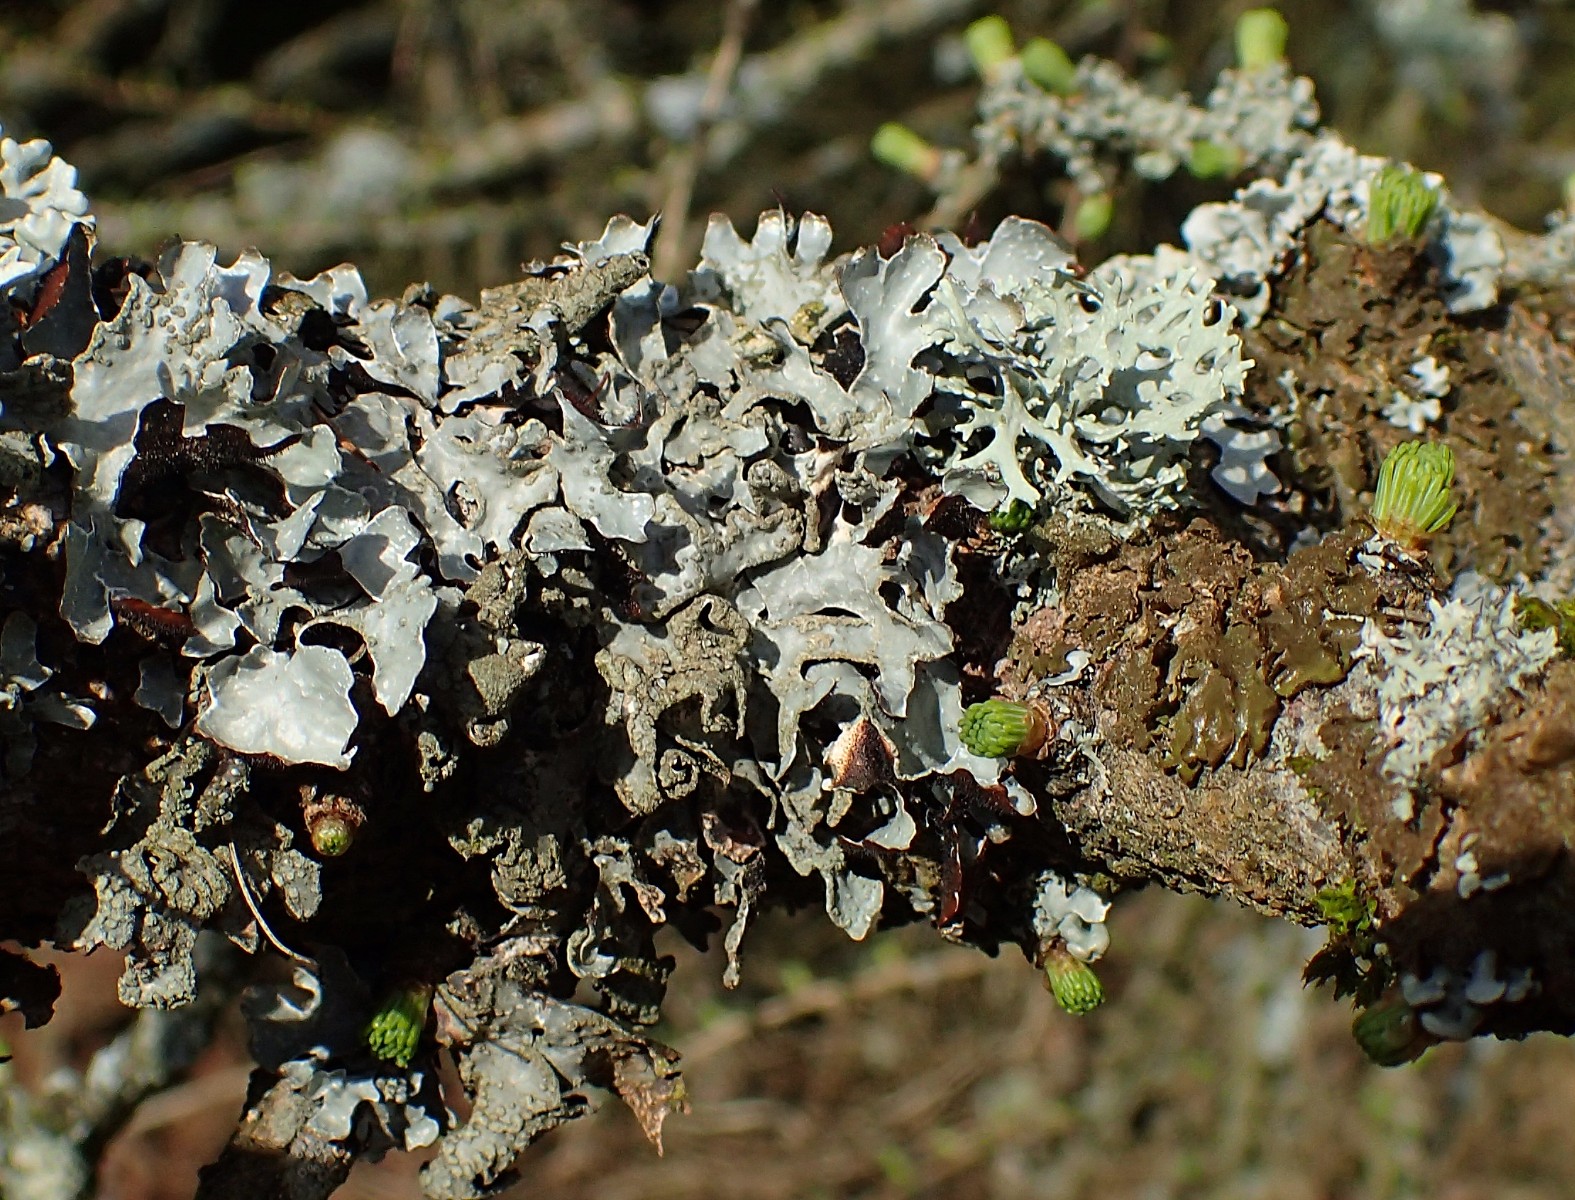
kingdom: Fungi
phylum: Ascomycota
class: Lecanoromycetes
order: Lecanorales
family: Parmeliaceae
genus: Parmelia
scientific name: Parmelia sulcata
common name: rynket skållav
